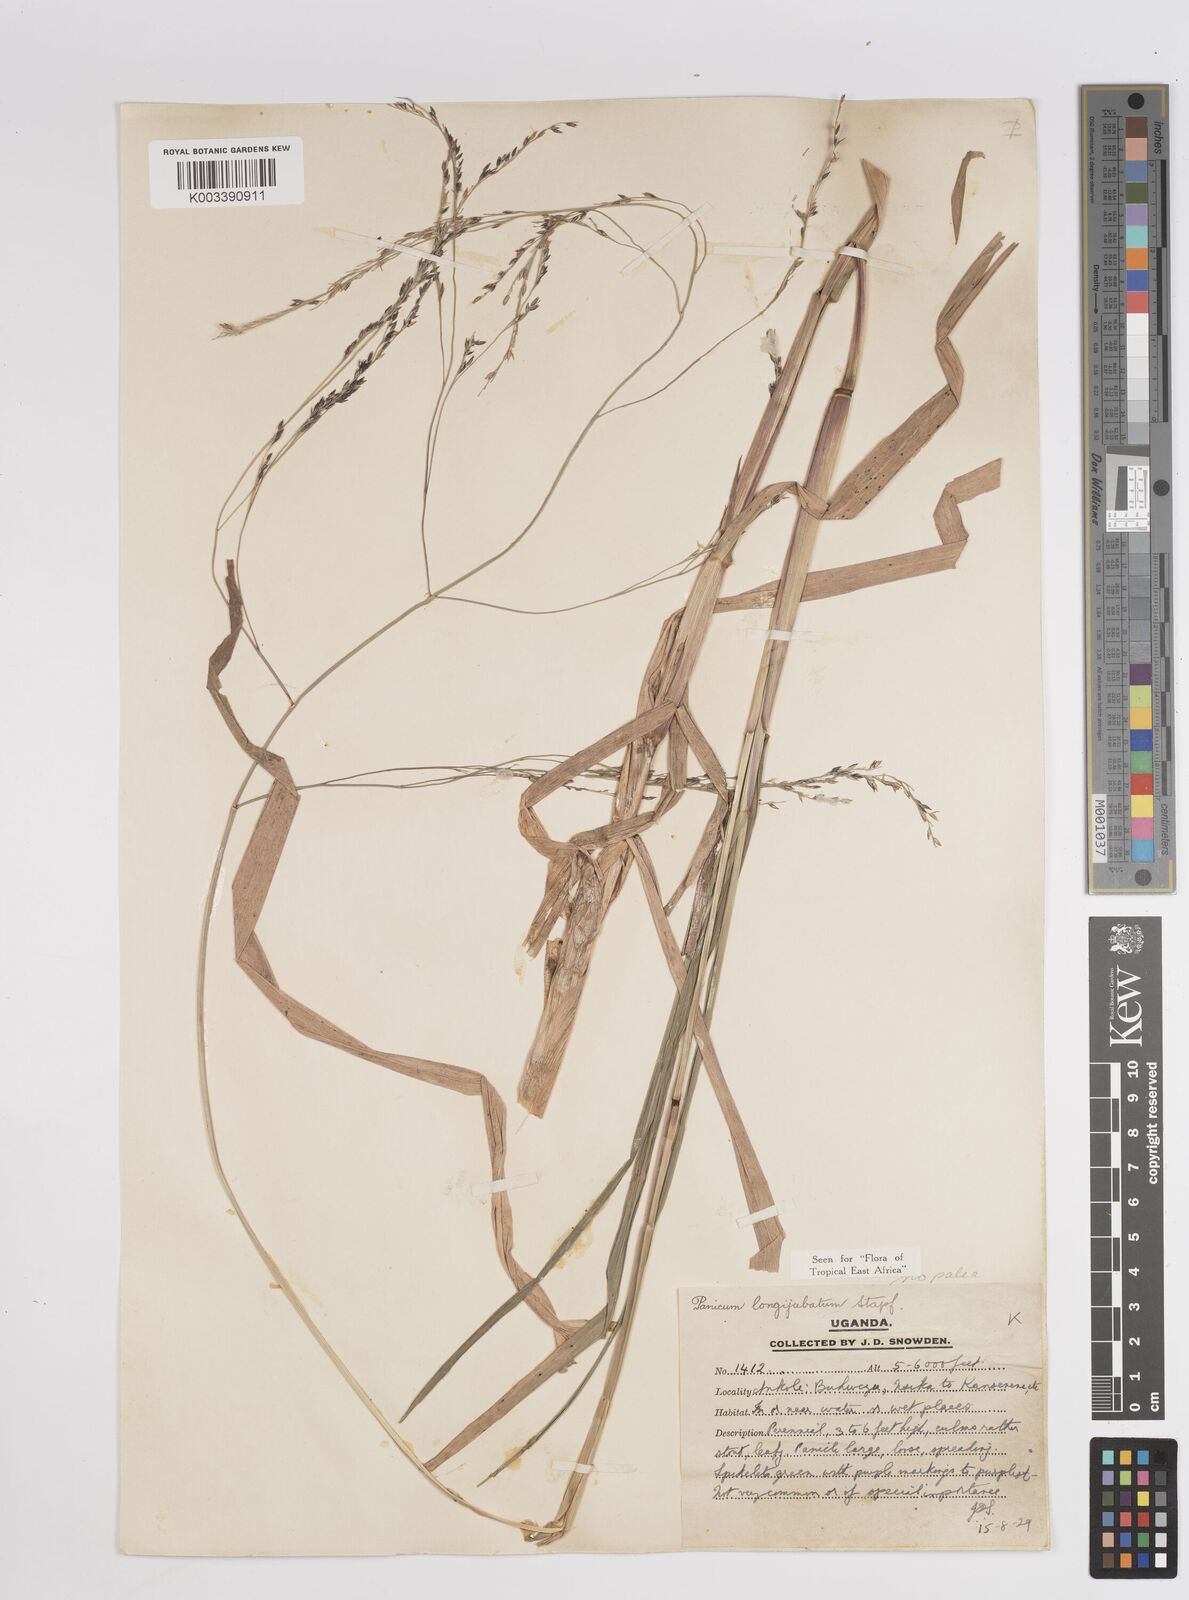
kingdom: Plantae
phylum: Tracheophyta
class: Liliopsida
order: Poales
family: Poaceae
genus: Panicum
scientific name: Panicum subalbidum
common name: Elbow buffalo grass
